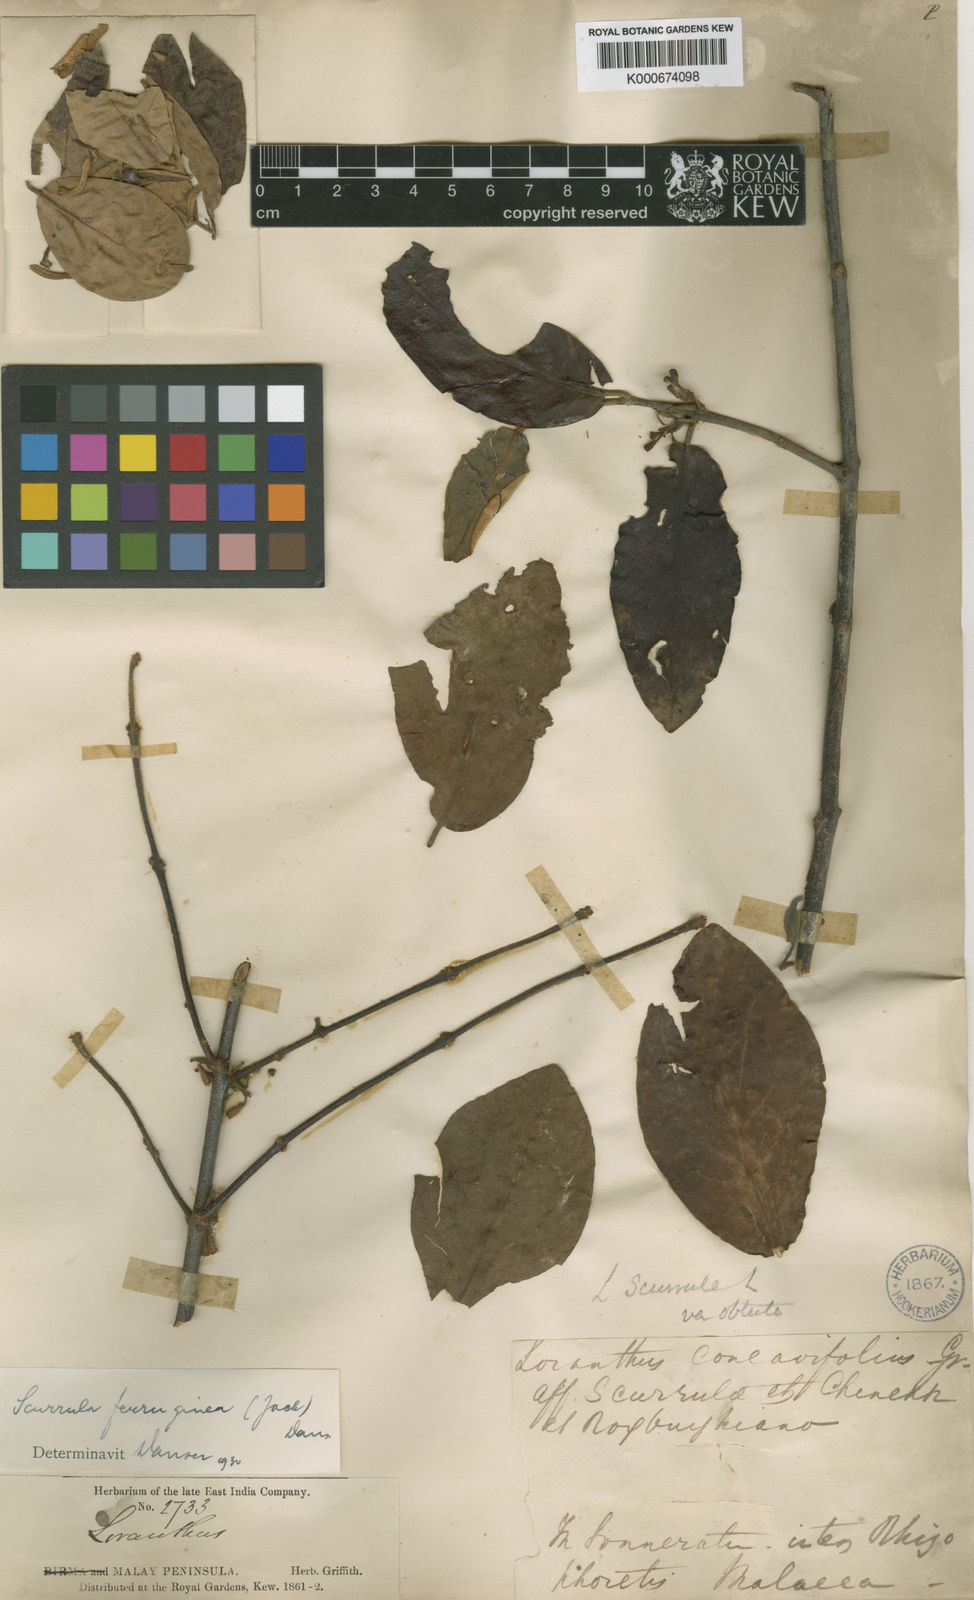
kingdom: Plantae
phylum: Tracheophyta
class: Magnoliopsida
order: Santalales
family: Loranthaceae
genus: Scurrula
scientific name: Scurrula ferruginea
